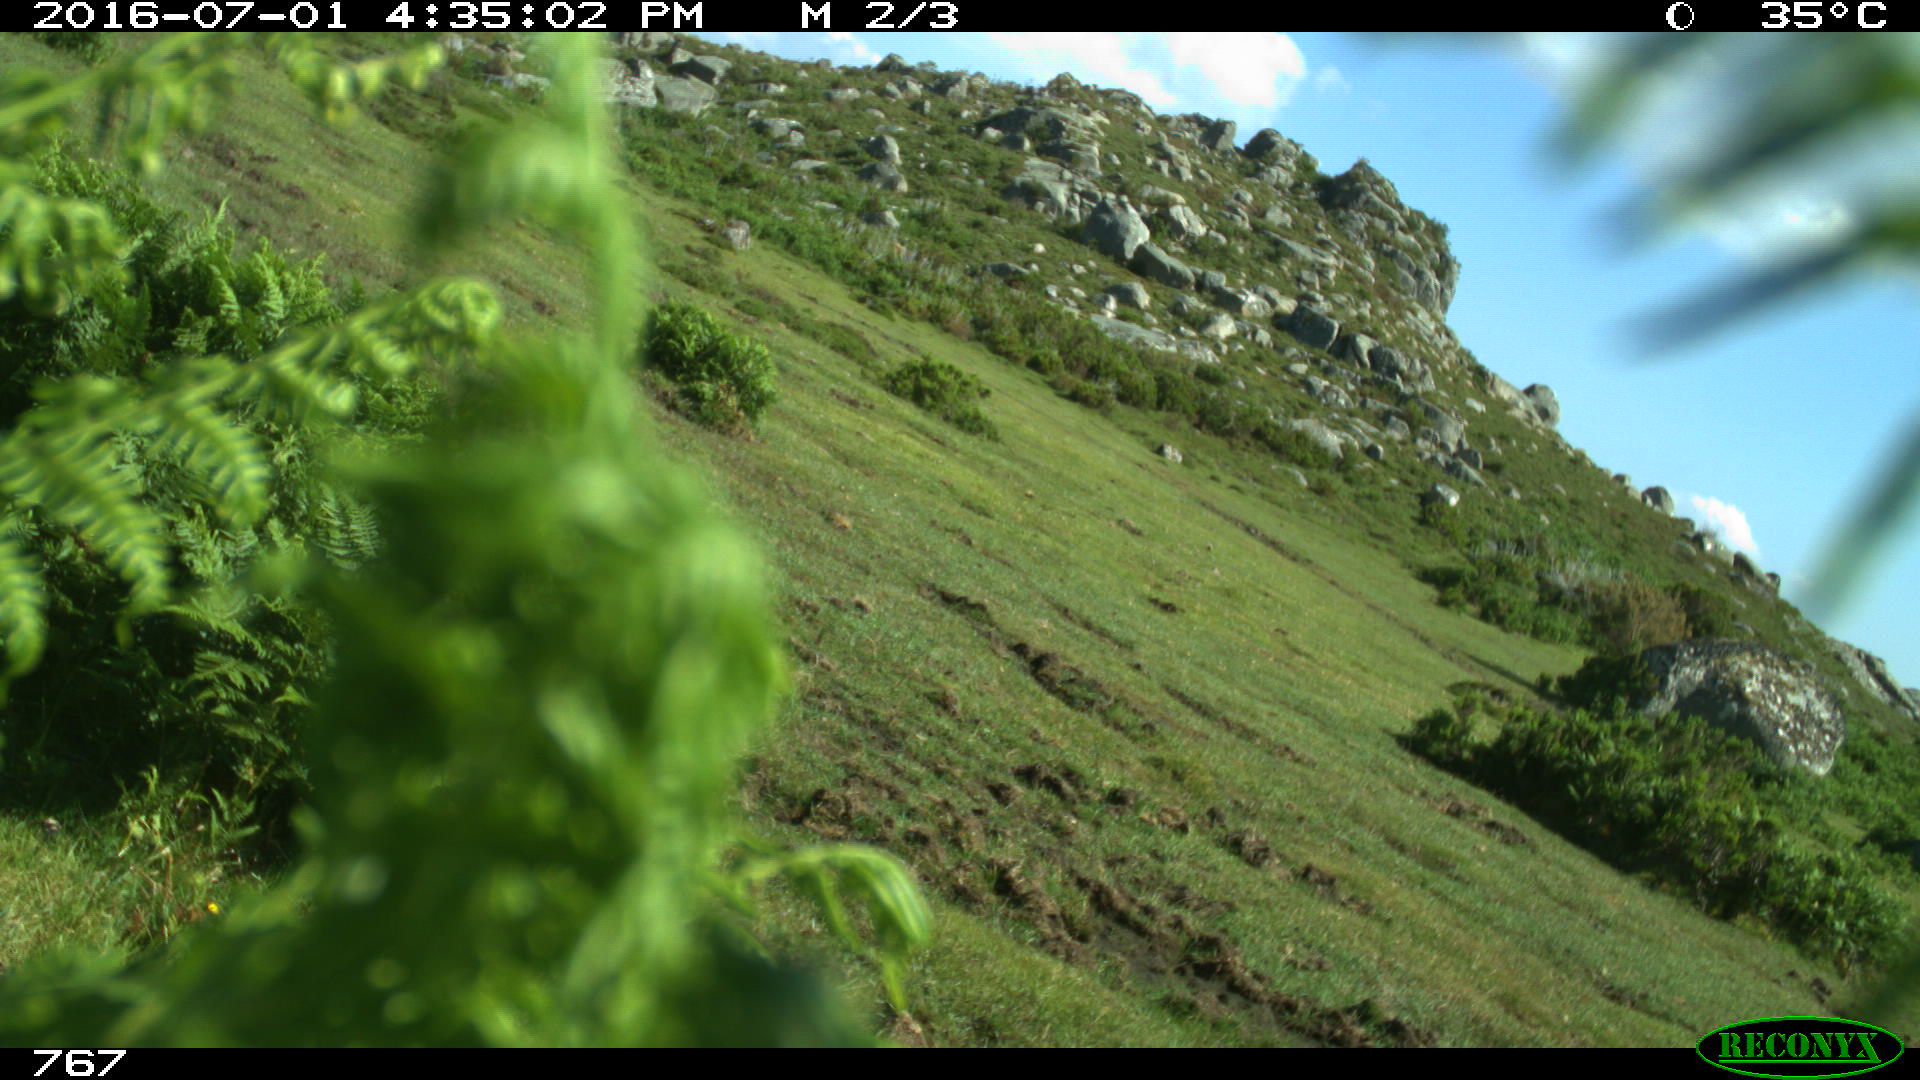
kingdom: Animalia
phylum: Chordata
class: Mammalia
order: Artiodactyla
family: Bovidae
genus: Bos
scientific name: Bos taurus
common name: Domesticated cattle
